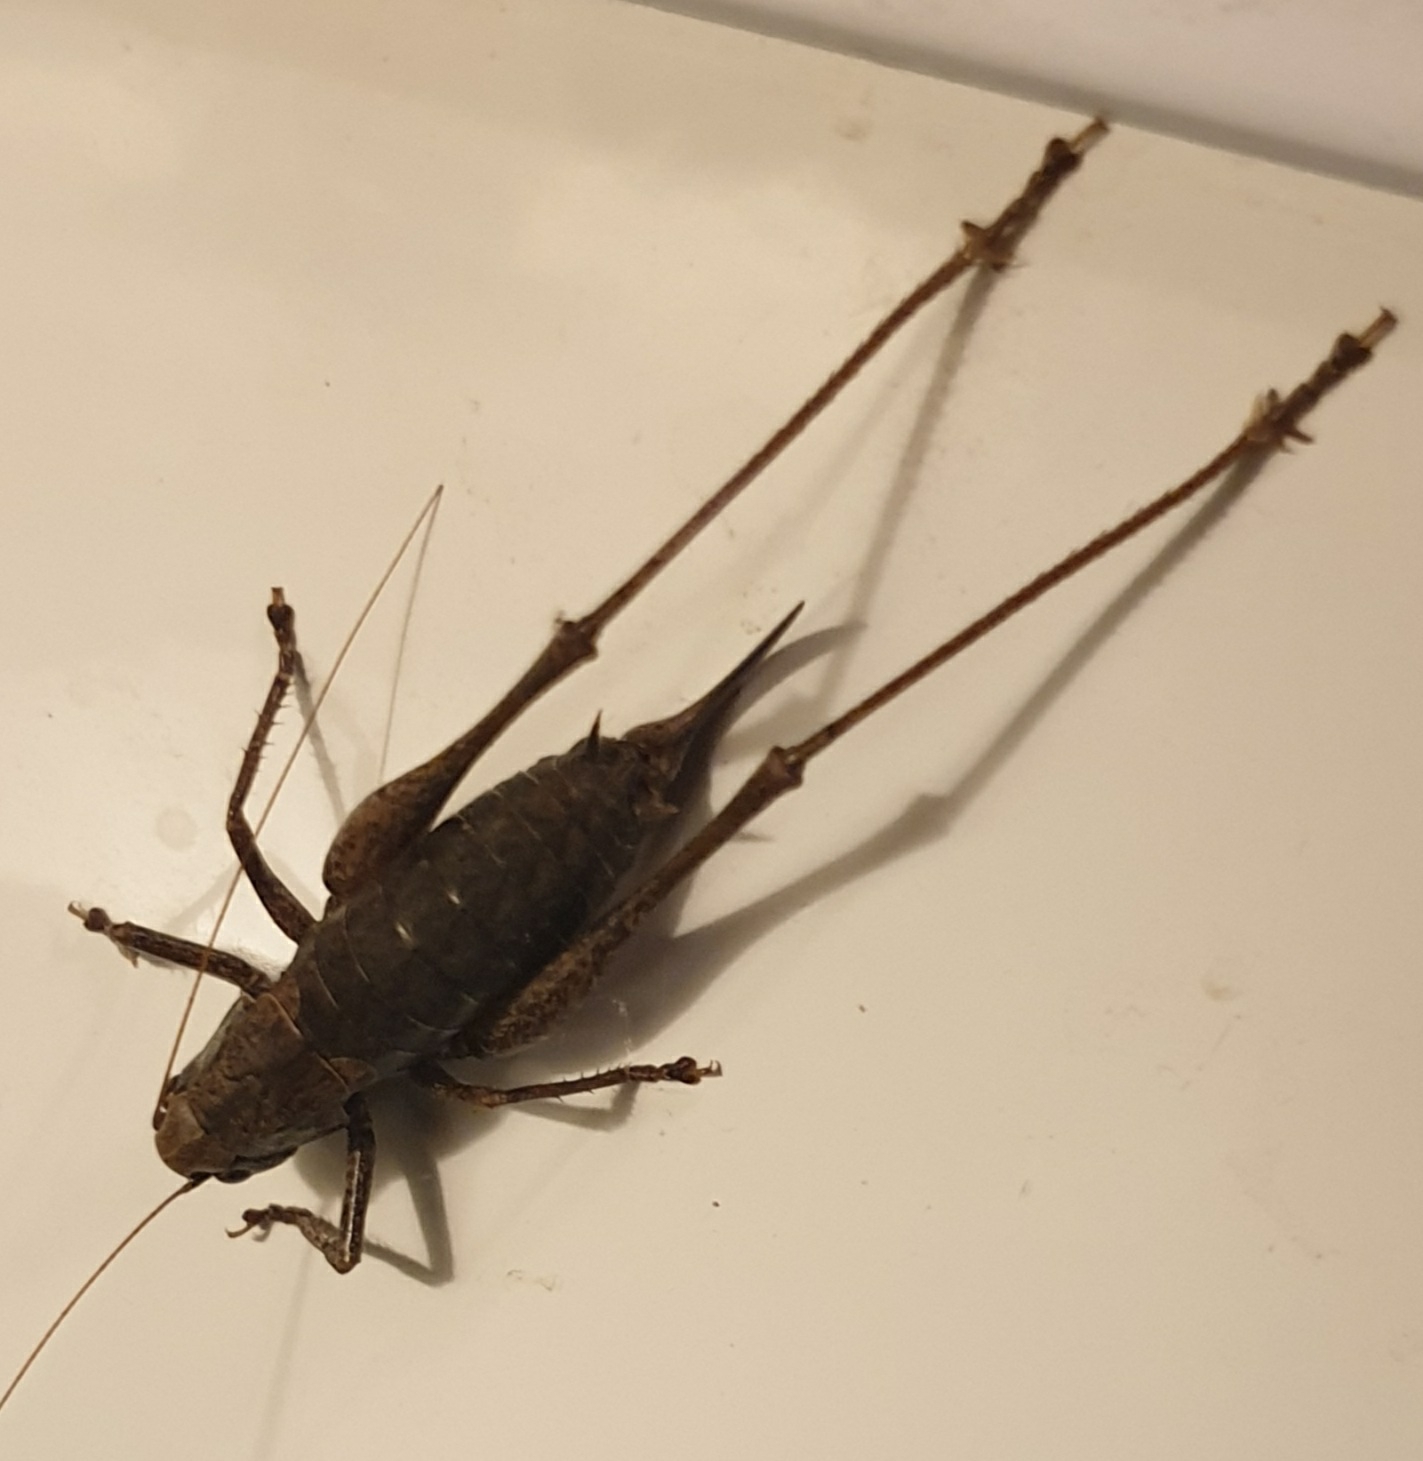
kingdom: Animalia
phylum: Arthropoda
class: Insecta
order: Orthoptera
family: Tettigoniidae
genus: Pholidoptera
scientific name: Pholidoptera griseoaptera
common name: Buskgræshoppe
